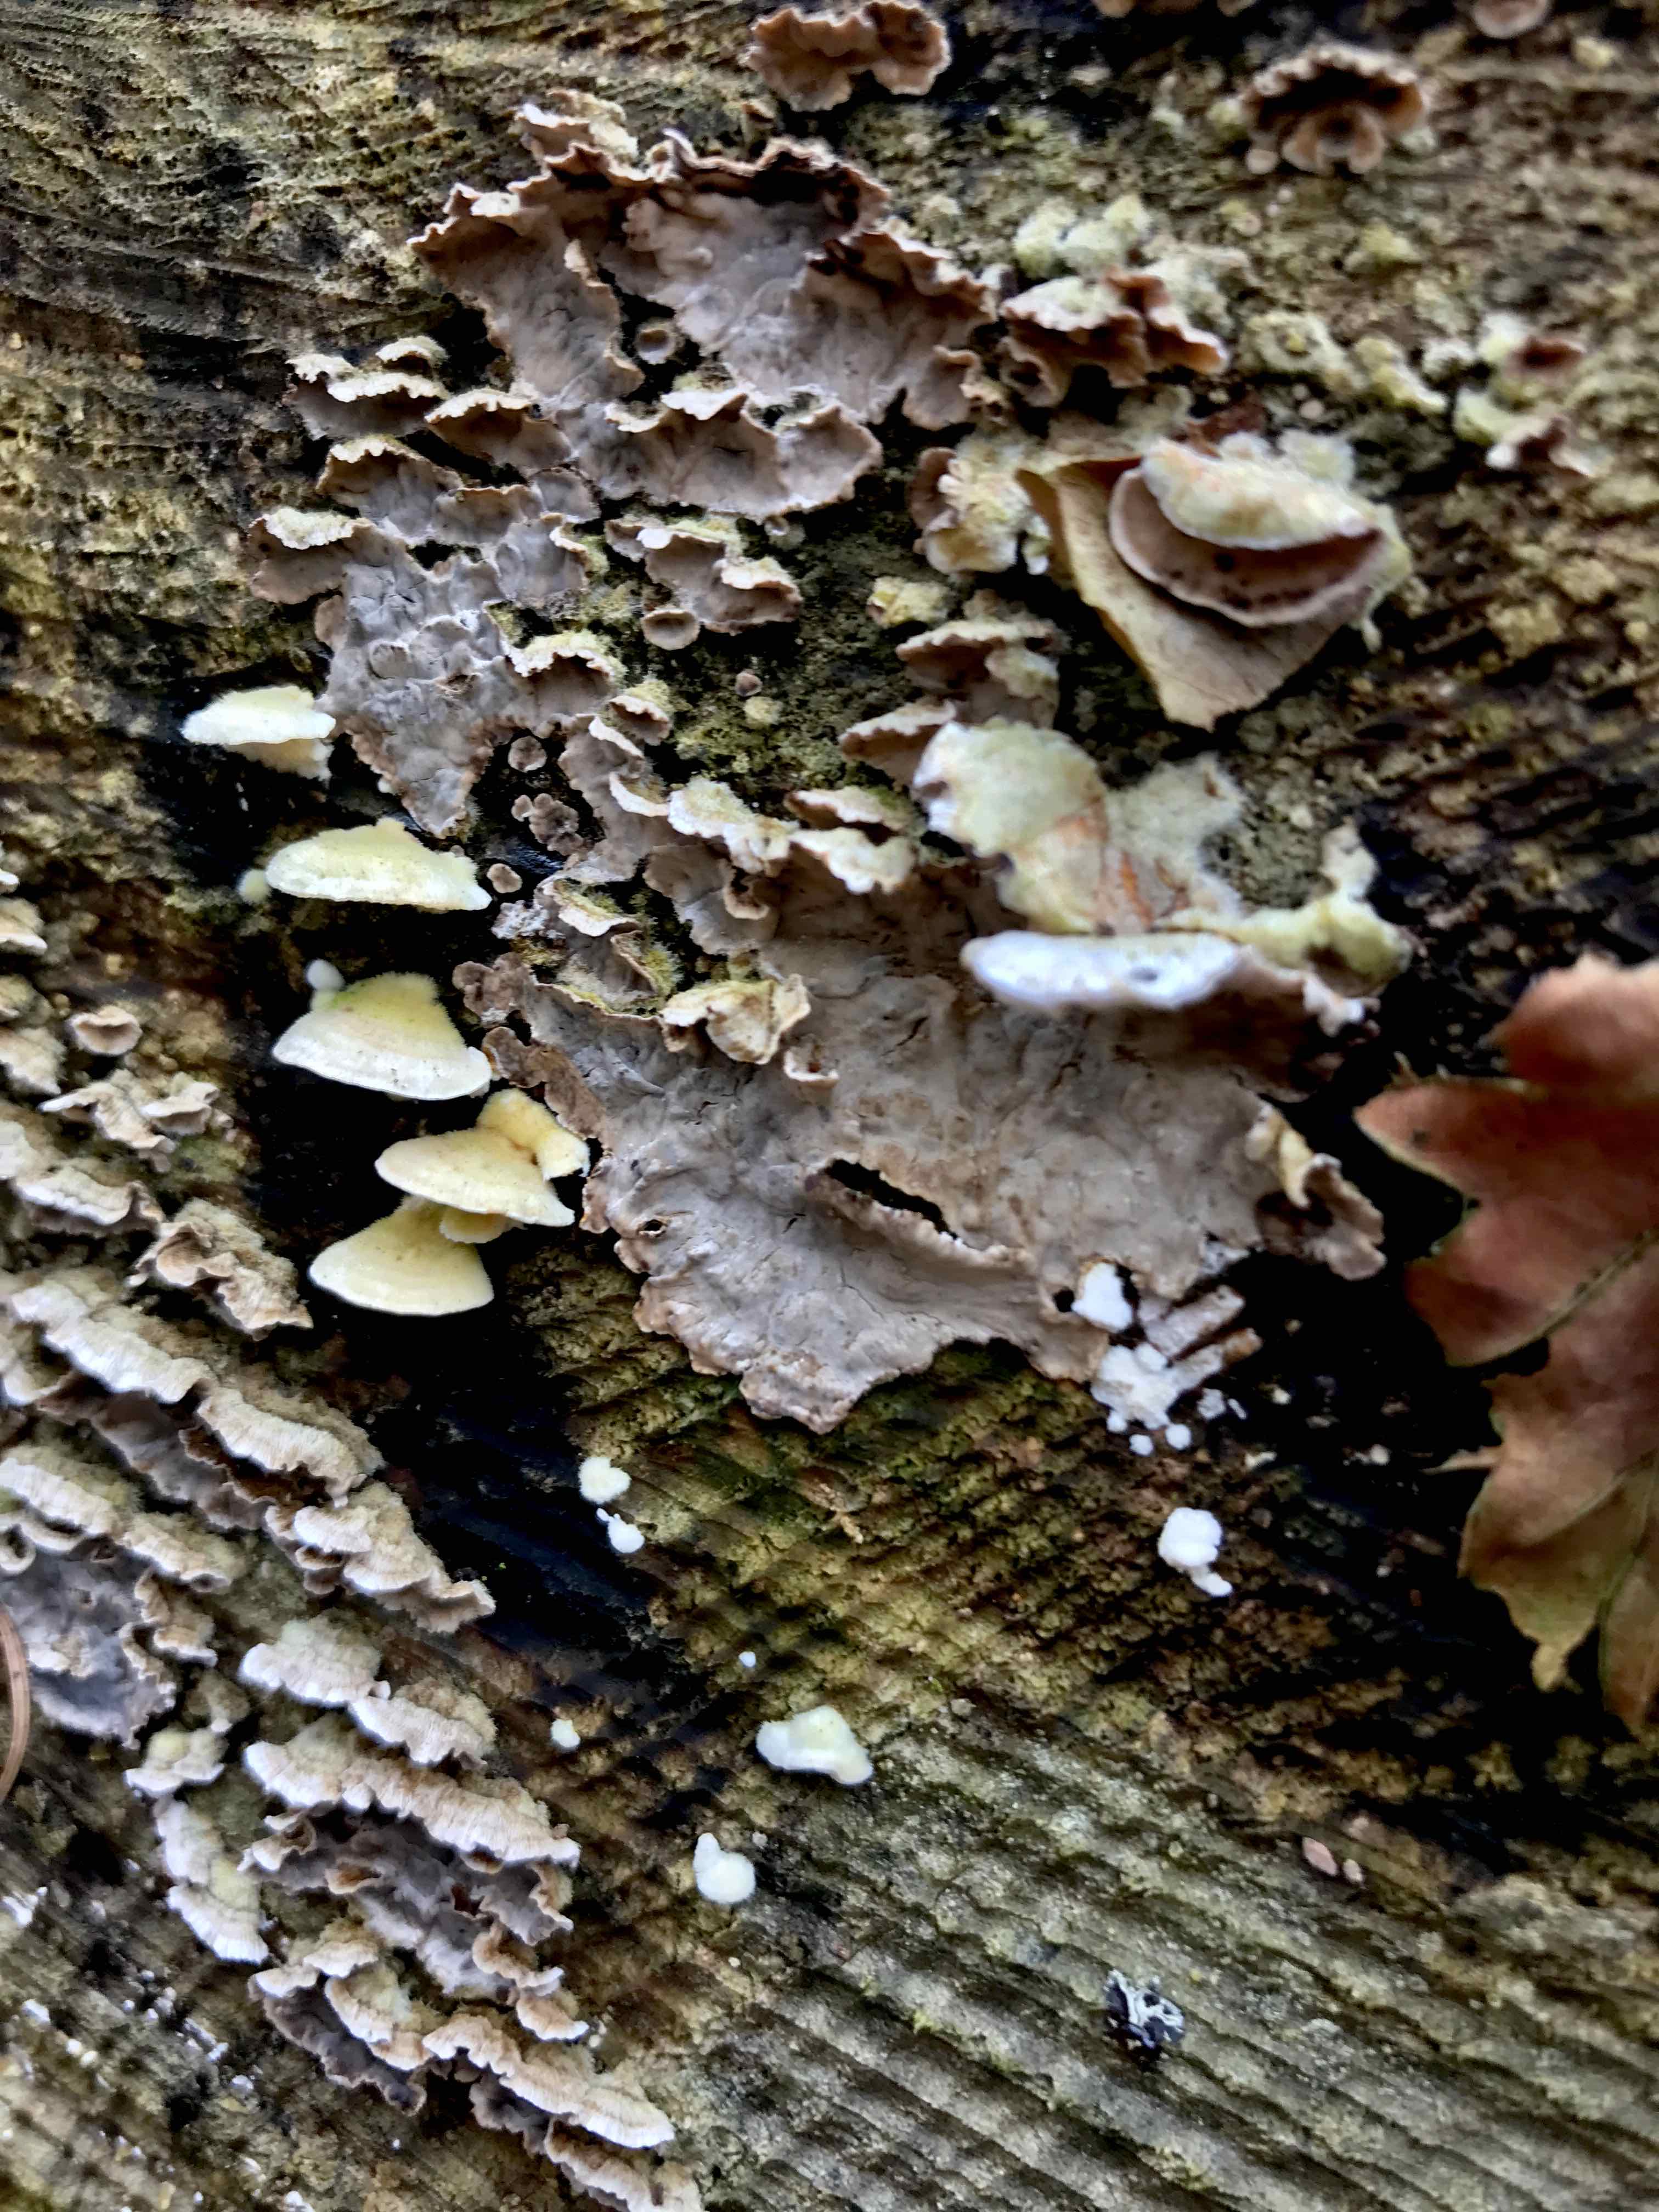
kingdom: Fungi
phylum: Basidiomycota
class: Agaricomycetes
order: Agaricales
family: Cyphellaceae
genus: Chondrostereum
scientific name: Chondrostereum purpureum
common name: purpurlædersvamp
